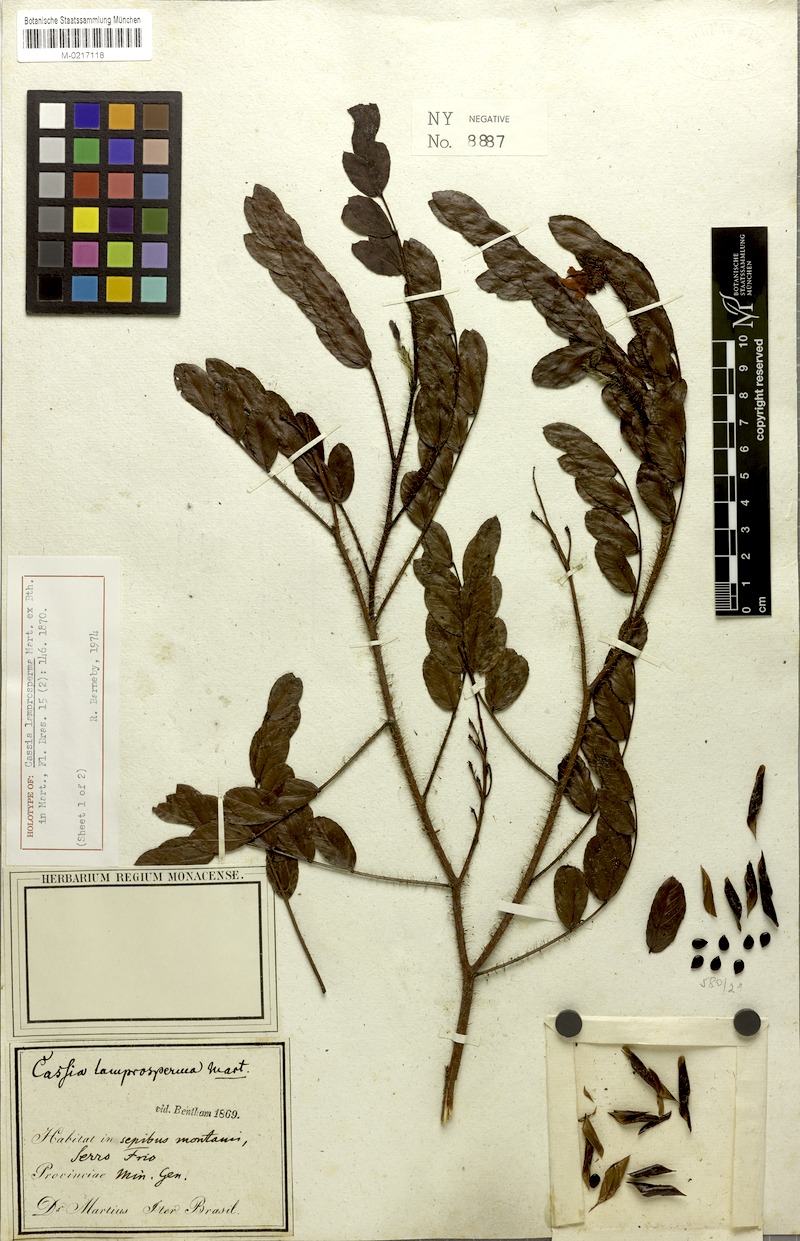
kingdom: Plantae
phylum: Tracheophyta
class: Magnoliopsida
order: Fabales
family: Fabaceae
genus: Chamaecrista
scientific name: Chamaecrista lamprosperma
